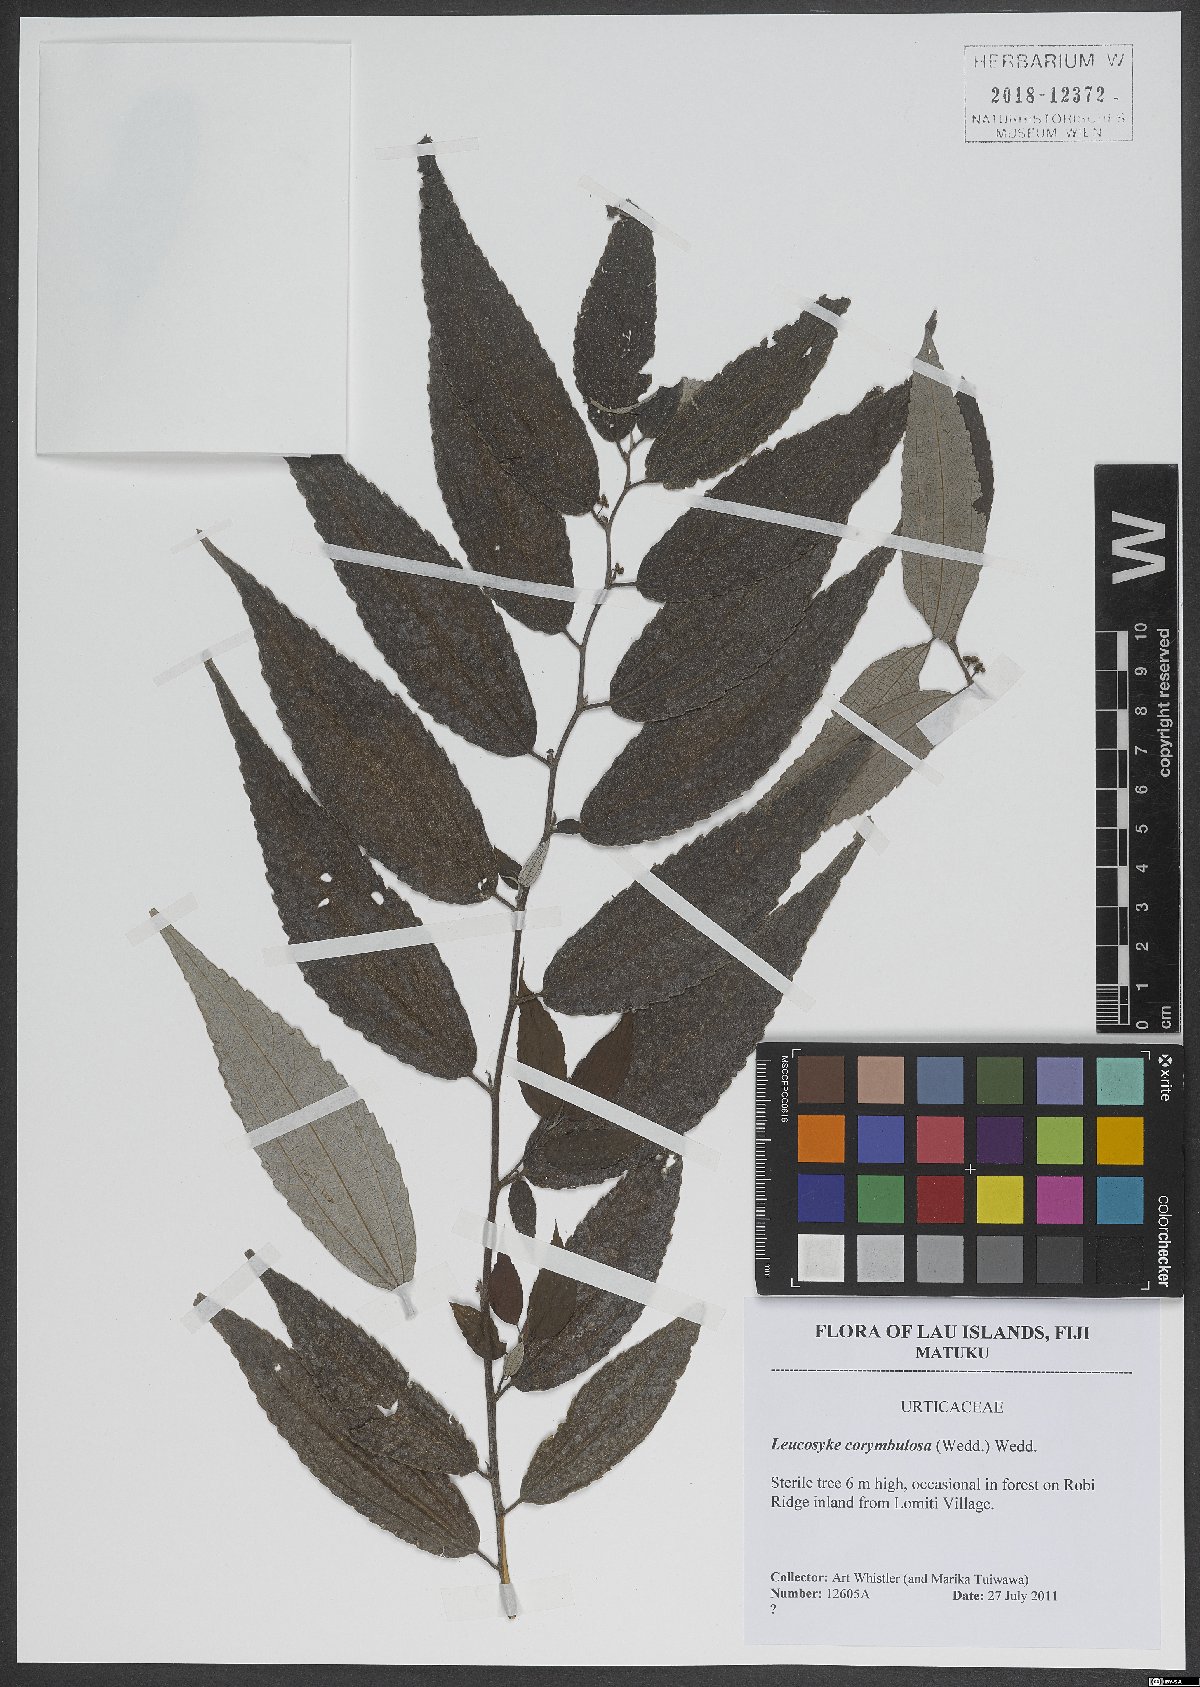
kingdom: Plantae
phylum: Tracheophyta
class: Magnoliopsida
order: Rosales
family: Urticaceae
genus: Leucosyke
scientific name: Leucosyke corymbulosa
